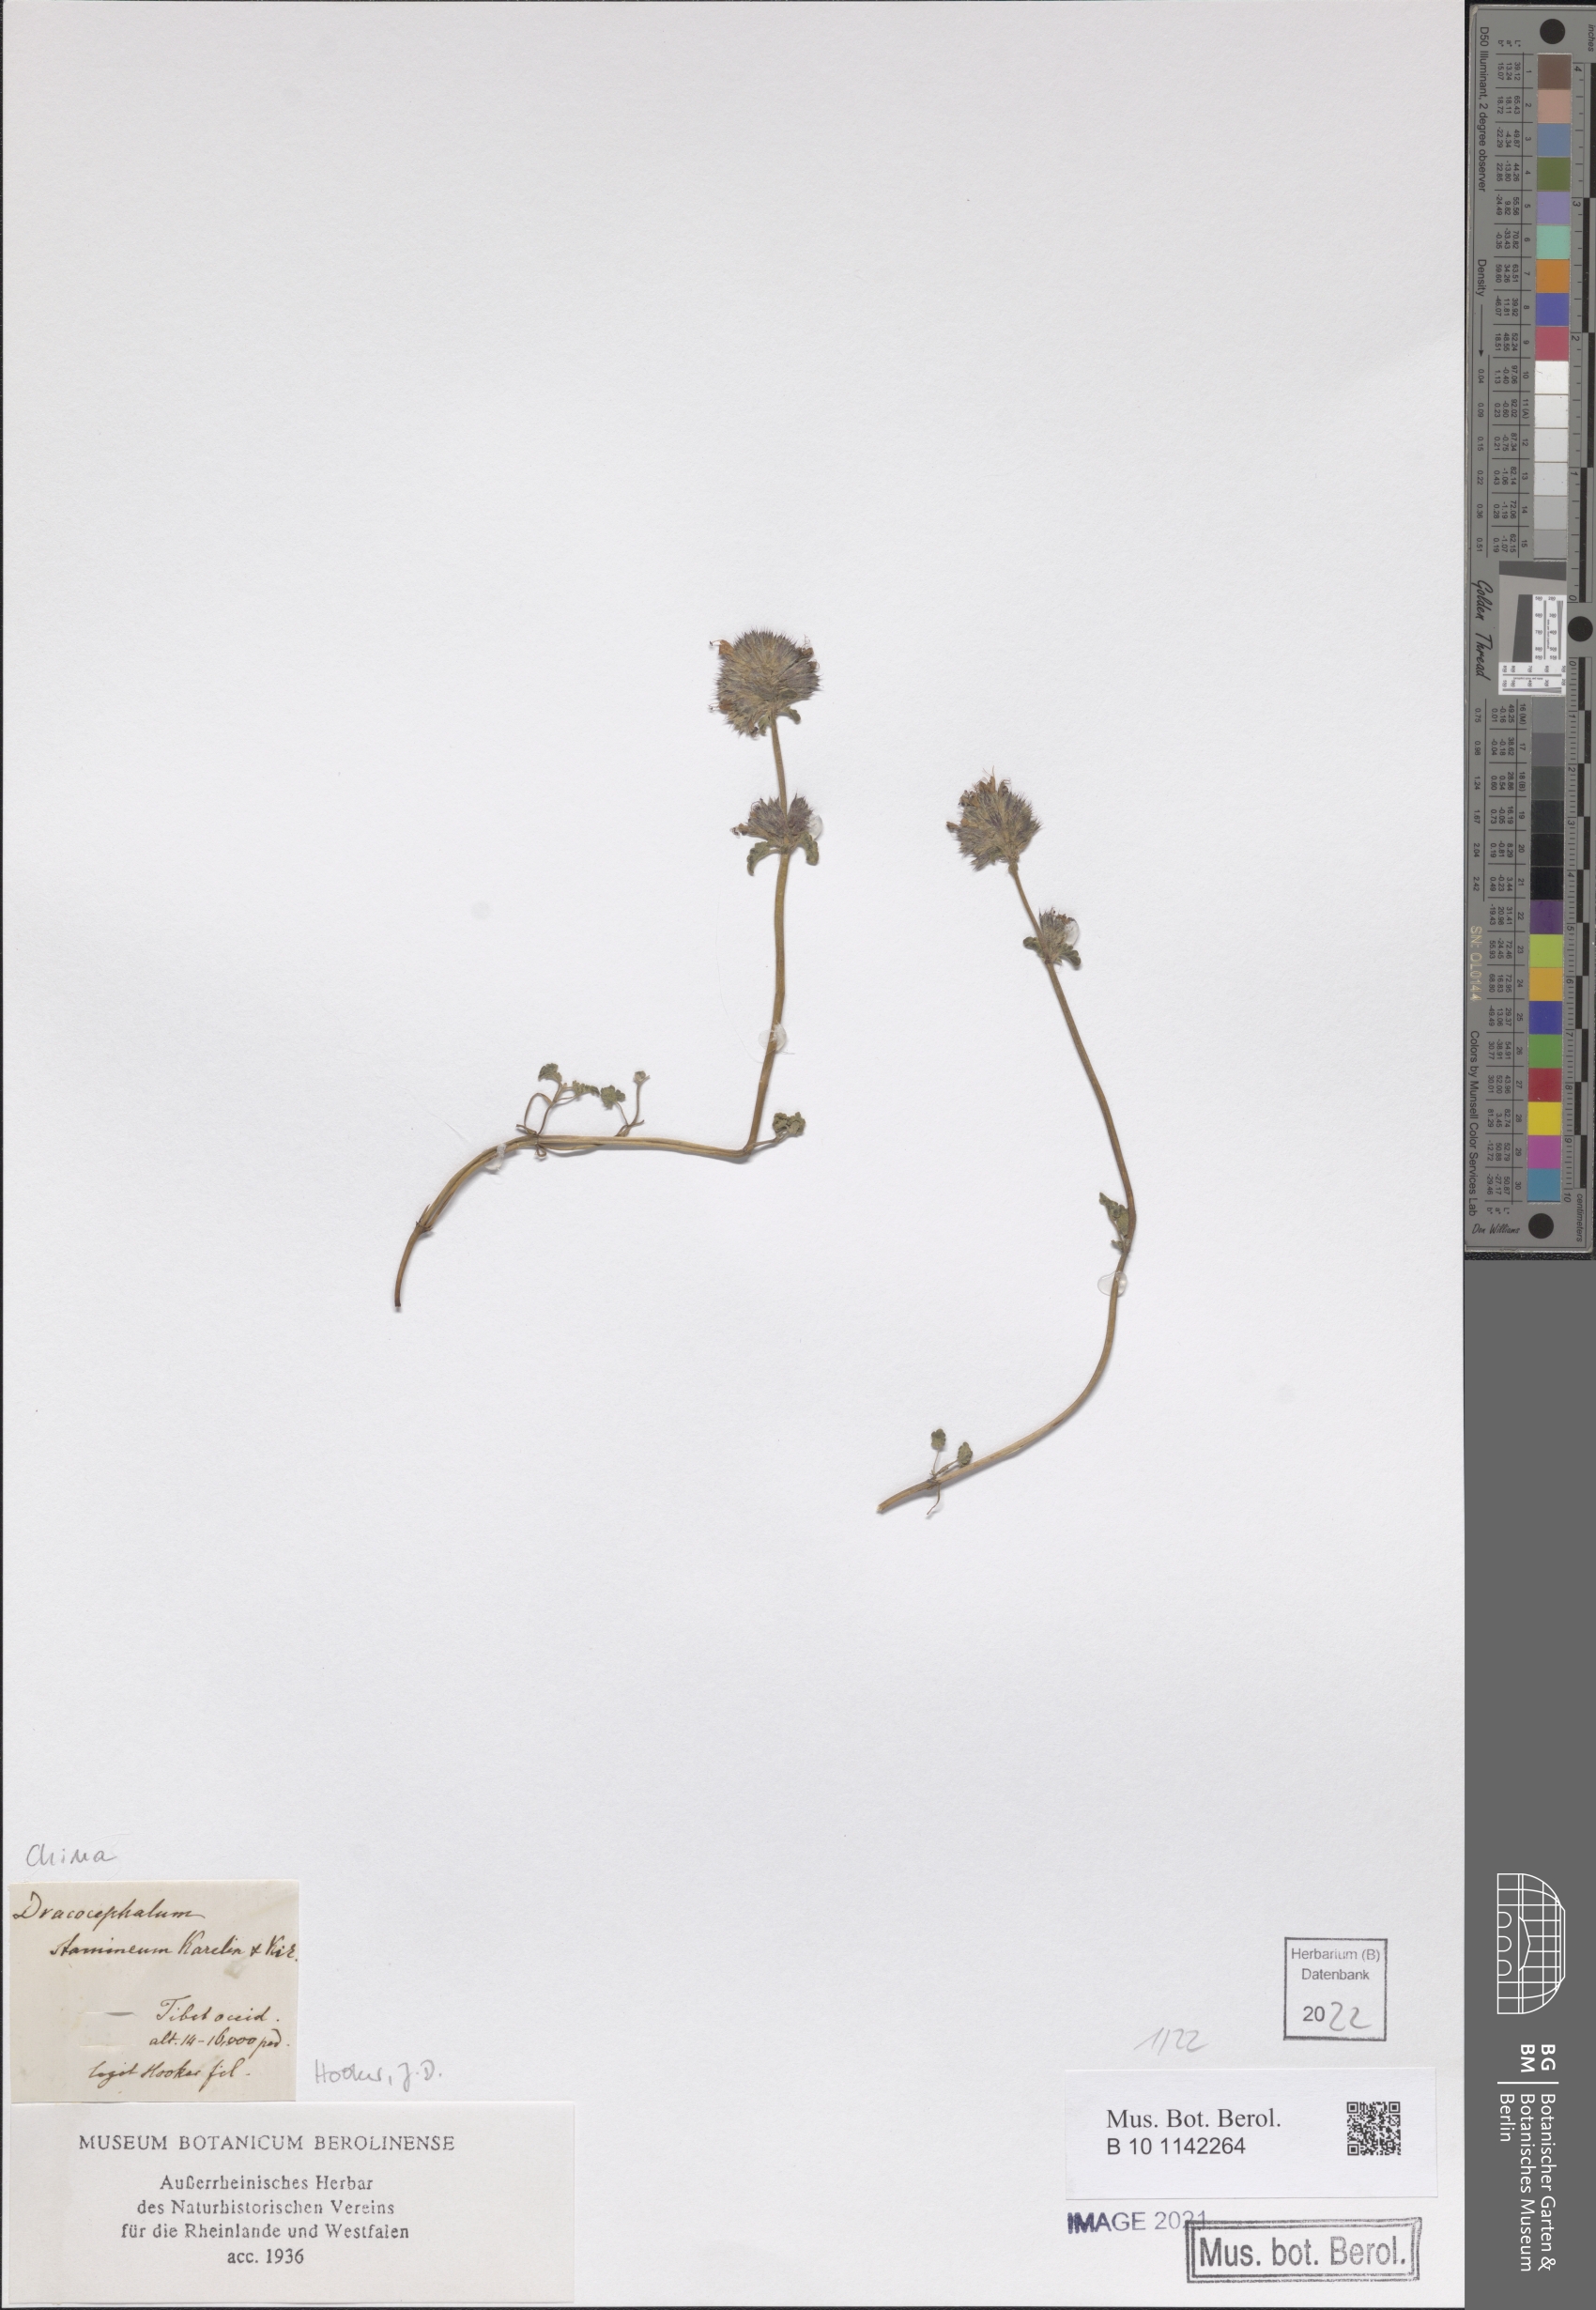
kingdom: Plantae
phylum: Tracheophyta
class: Magnoliopsida
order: Lamiales
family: Lamiaceae
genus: Dracocephalum
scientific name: Dracocephalum stamineum
